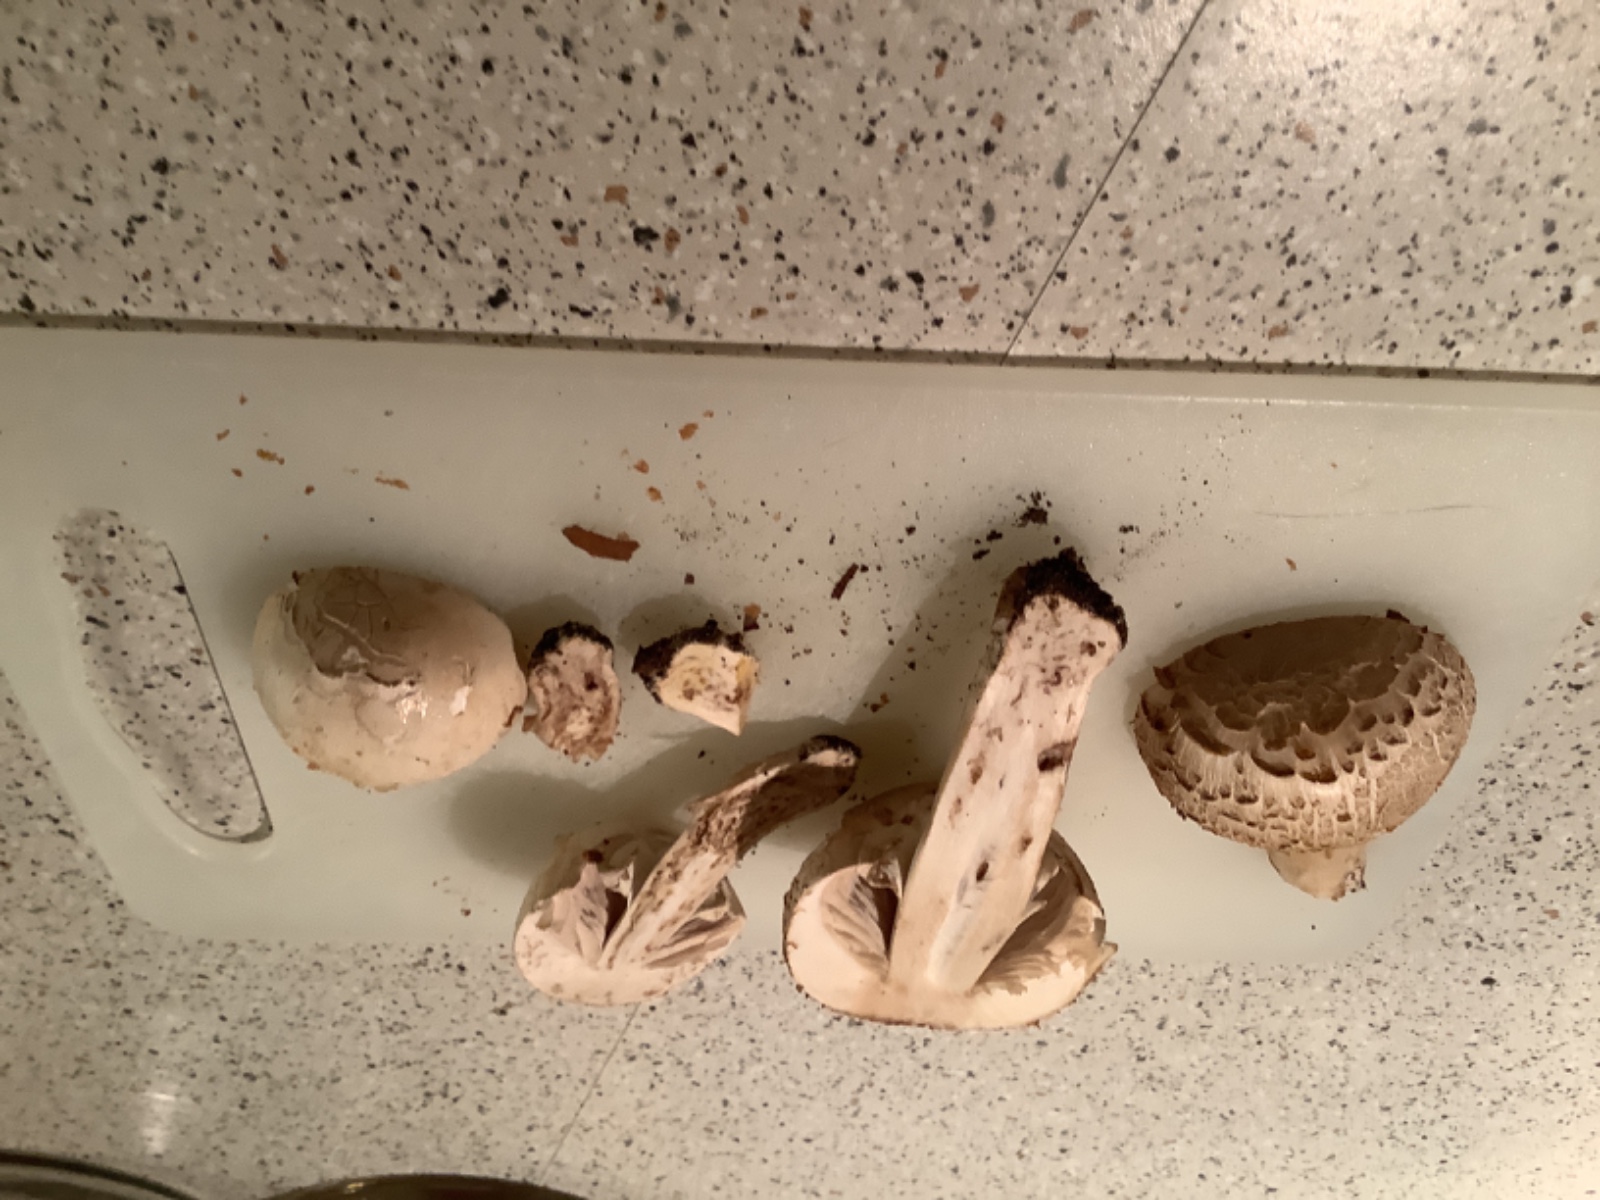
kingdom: Fungi
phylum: Basidiomycota
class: Agaricomycetes
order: Agaricales
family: Agaricaceae
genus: Agaricus
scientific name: Agaricus
